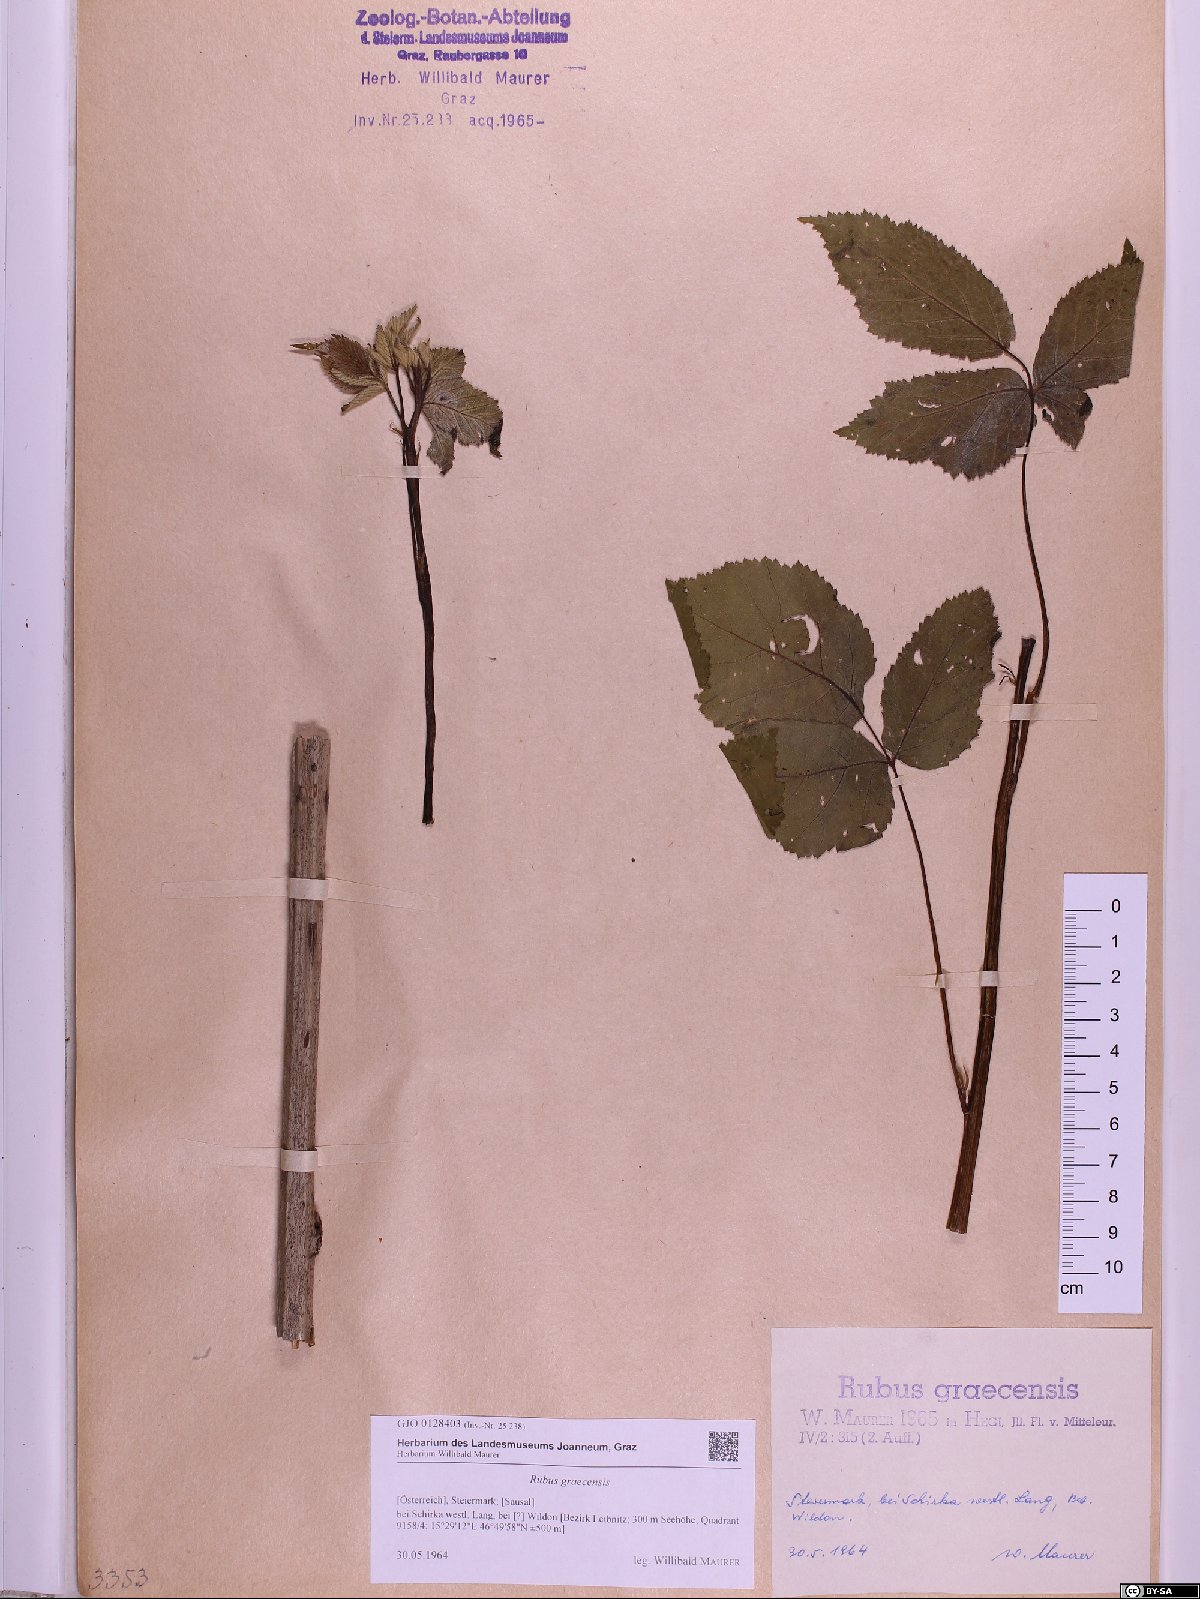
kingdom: Plantae
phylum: Tracheophyta
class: Magnoliopsida
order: Rosales
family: Rosaceae
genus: Rubus
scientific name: Rubus graecensis
